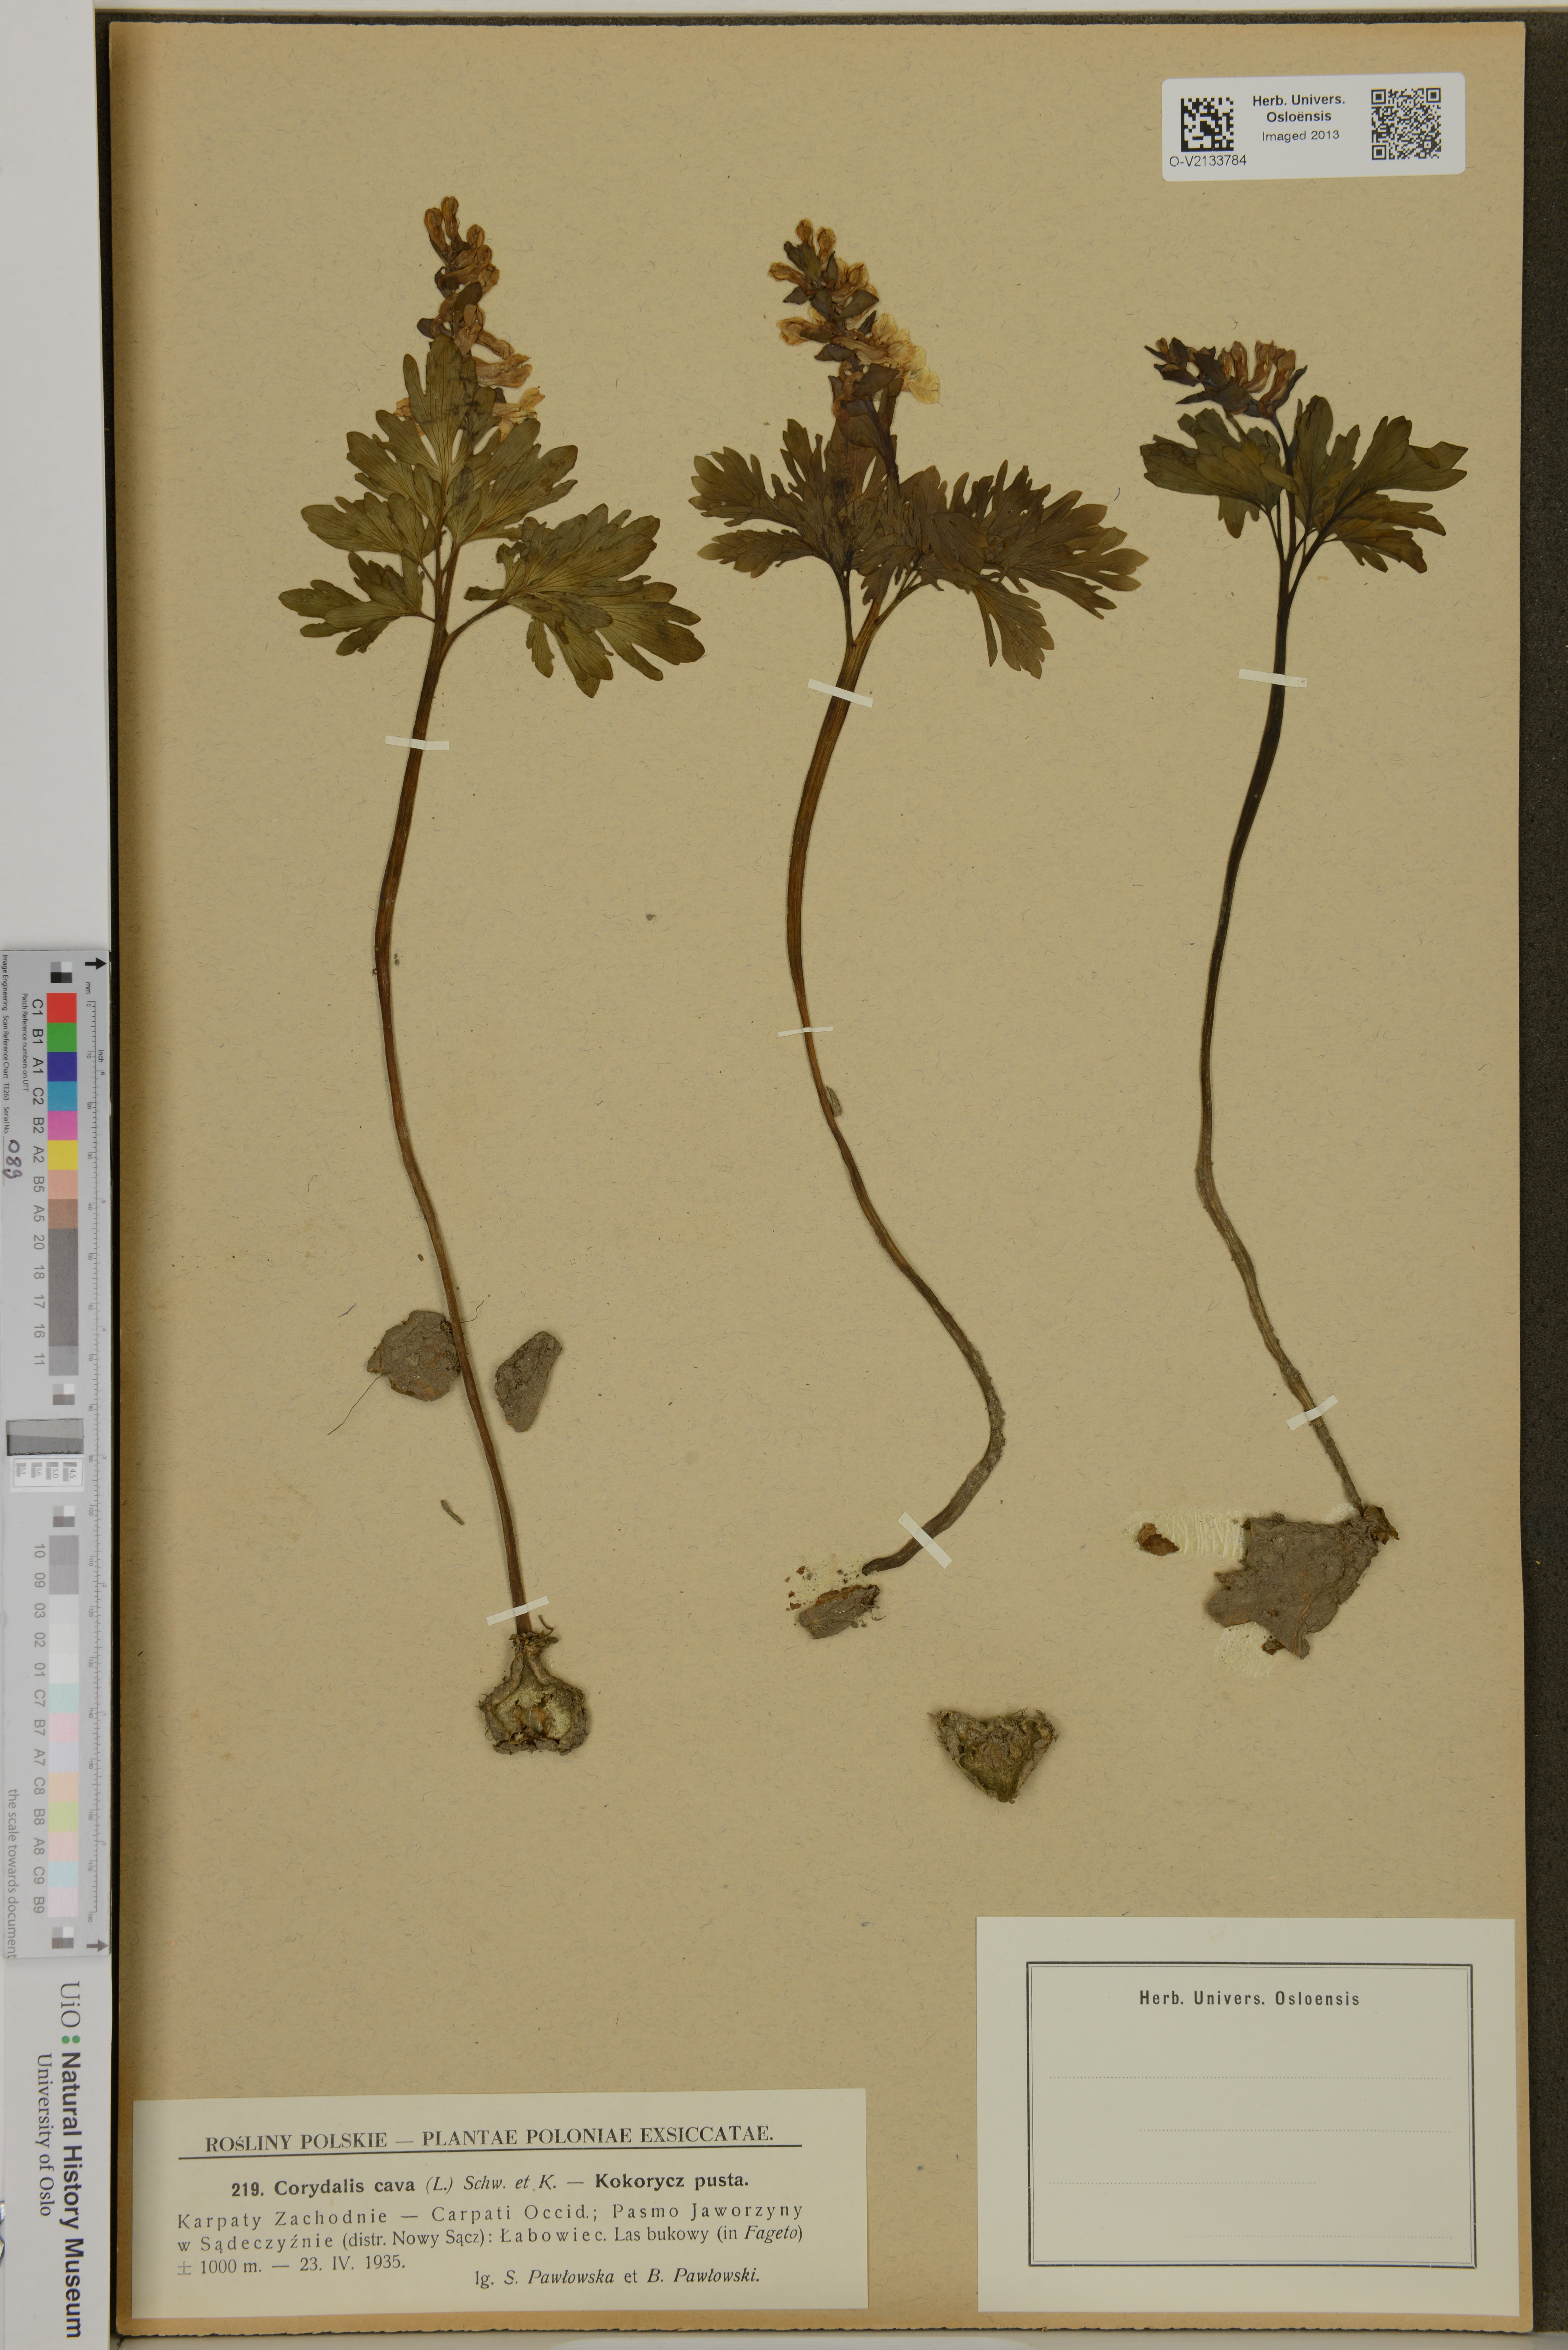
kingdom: Plantae
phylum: Tracheophyta
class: Magnoliopsida
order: Ranunculales
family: Papaveraceae
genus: Corydalis
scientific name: Corydalis cava
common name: Hollowroot
